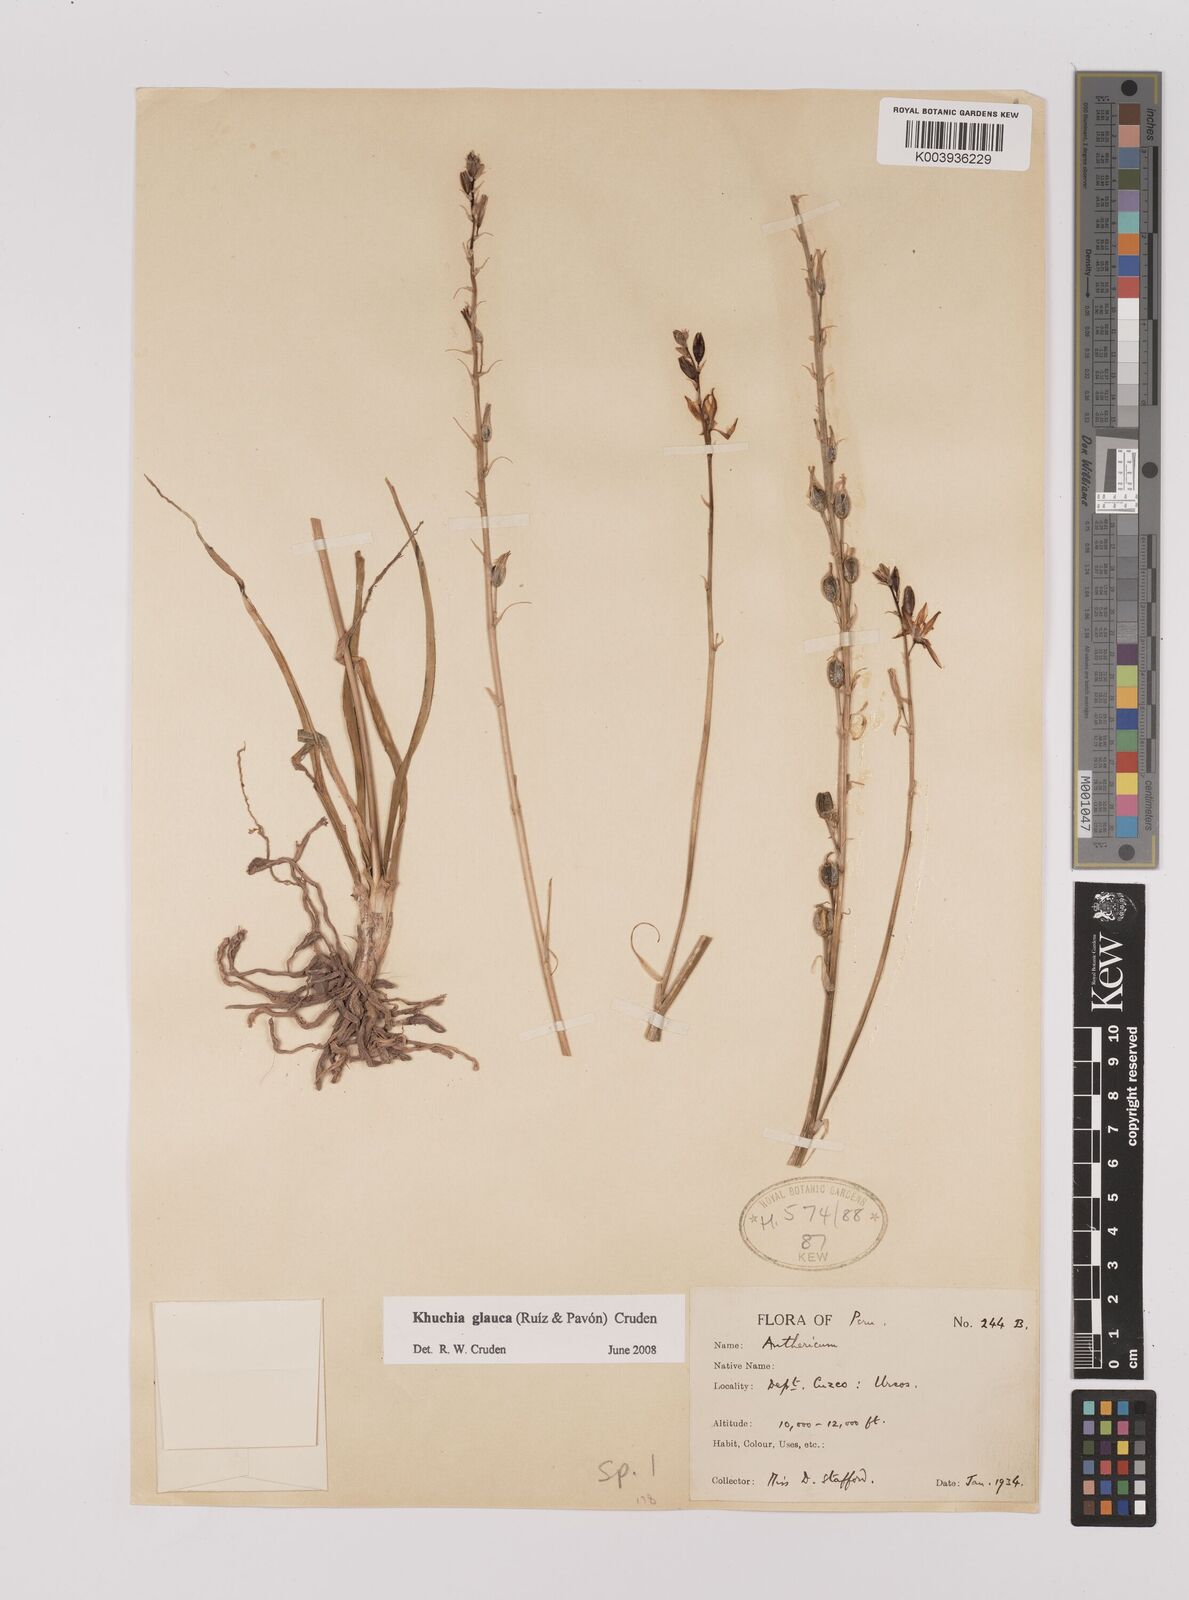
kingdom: Plantae
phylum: Tracheophyta
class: Liliopsida
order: Asparagales
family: Asparagaceae
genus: Echeandia
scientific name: Echeandia
